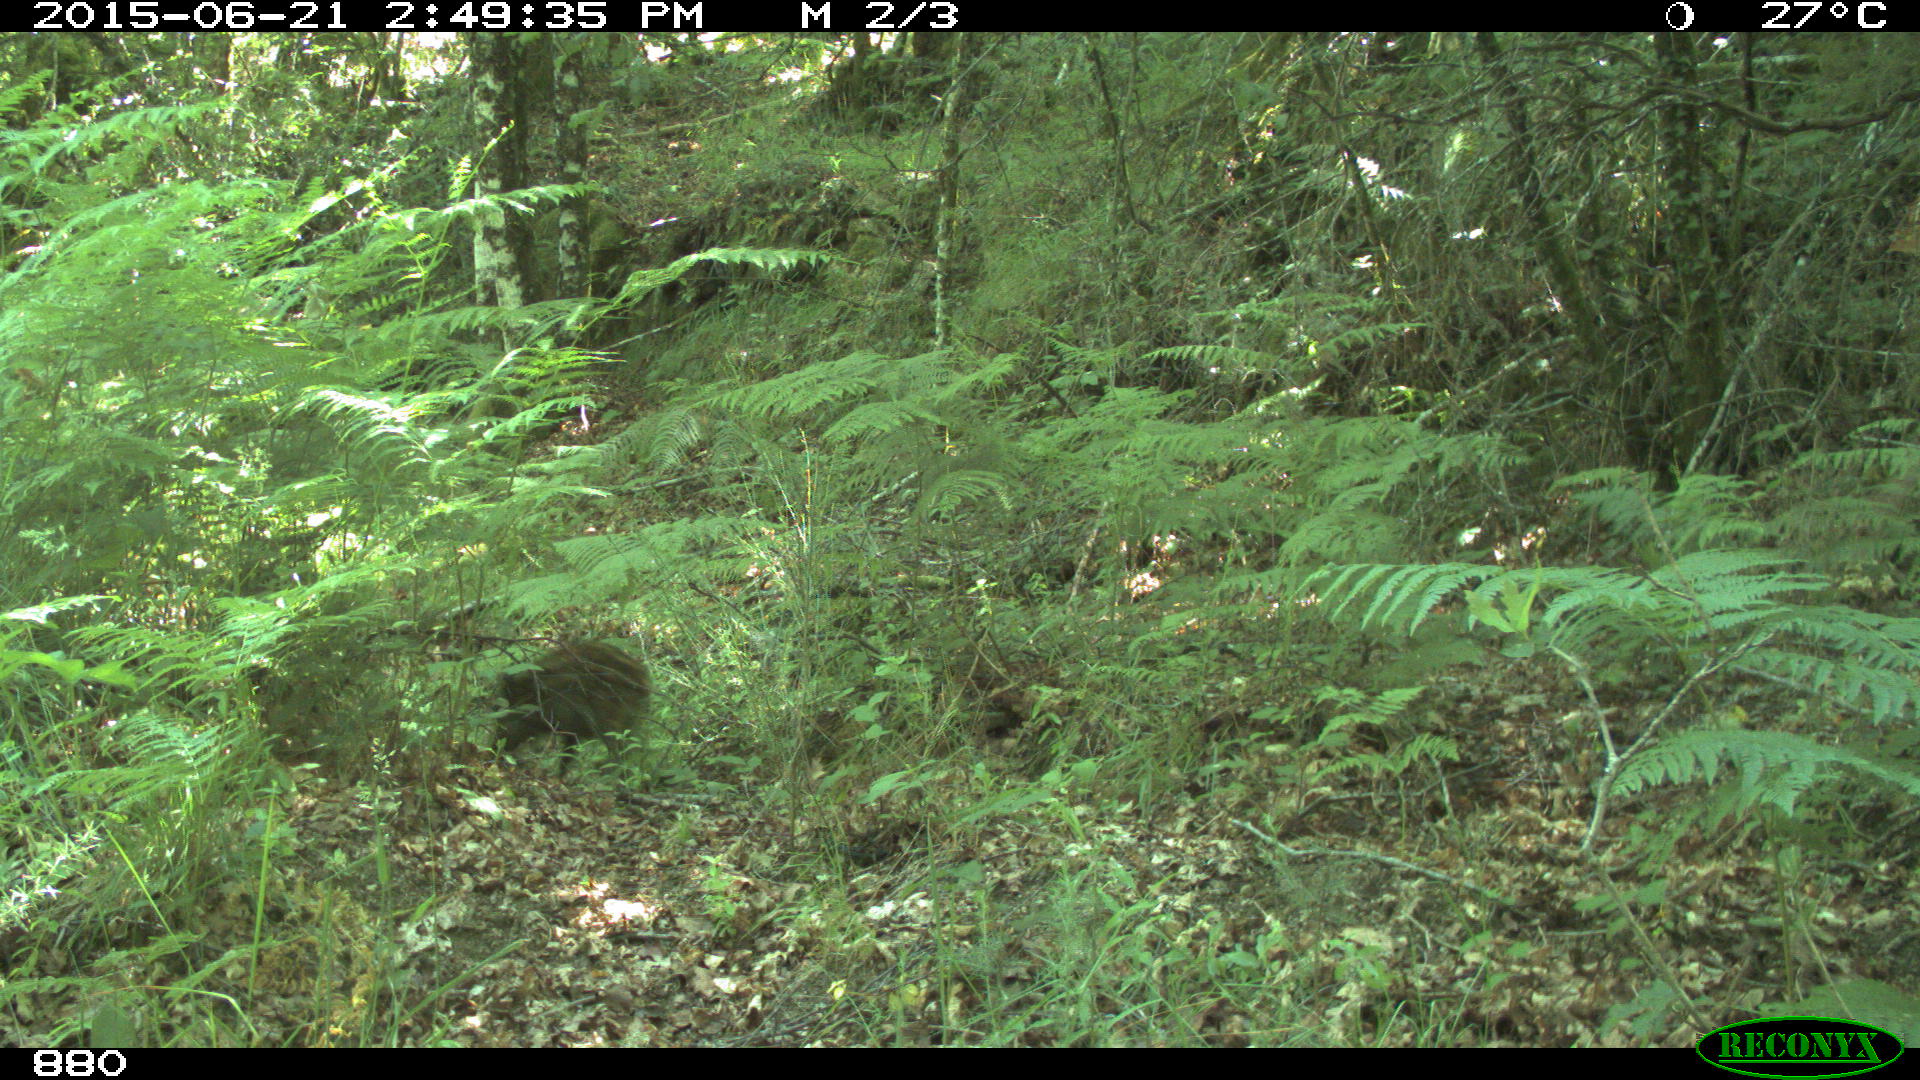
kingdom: Animalia
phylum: Chordata
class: Mammalia
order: Artiodactyla
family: Suidae
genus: Sus
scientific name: Sus scrofa
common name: Wild boar
